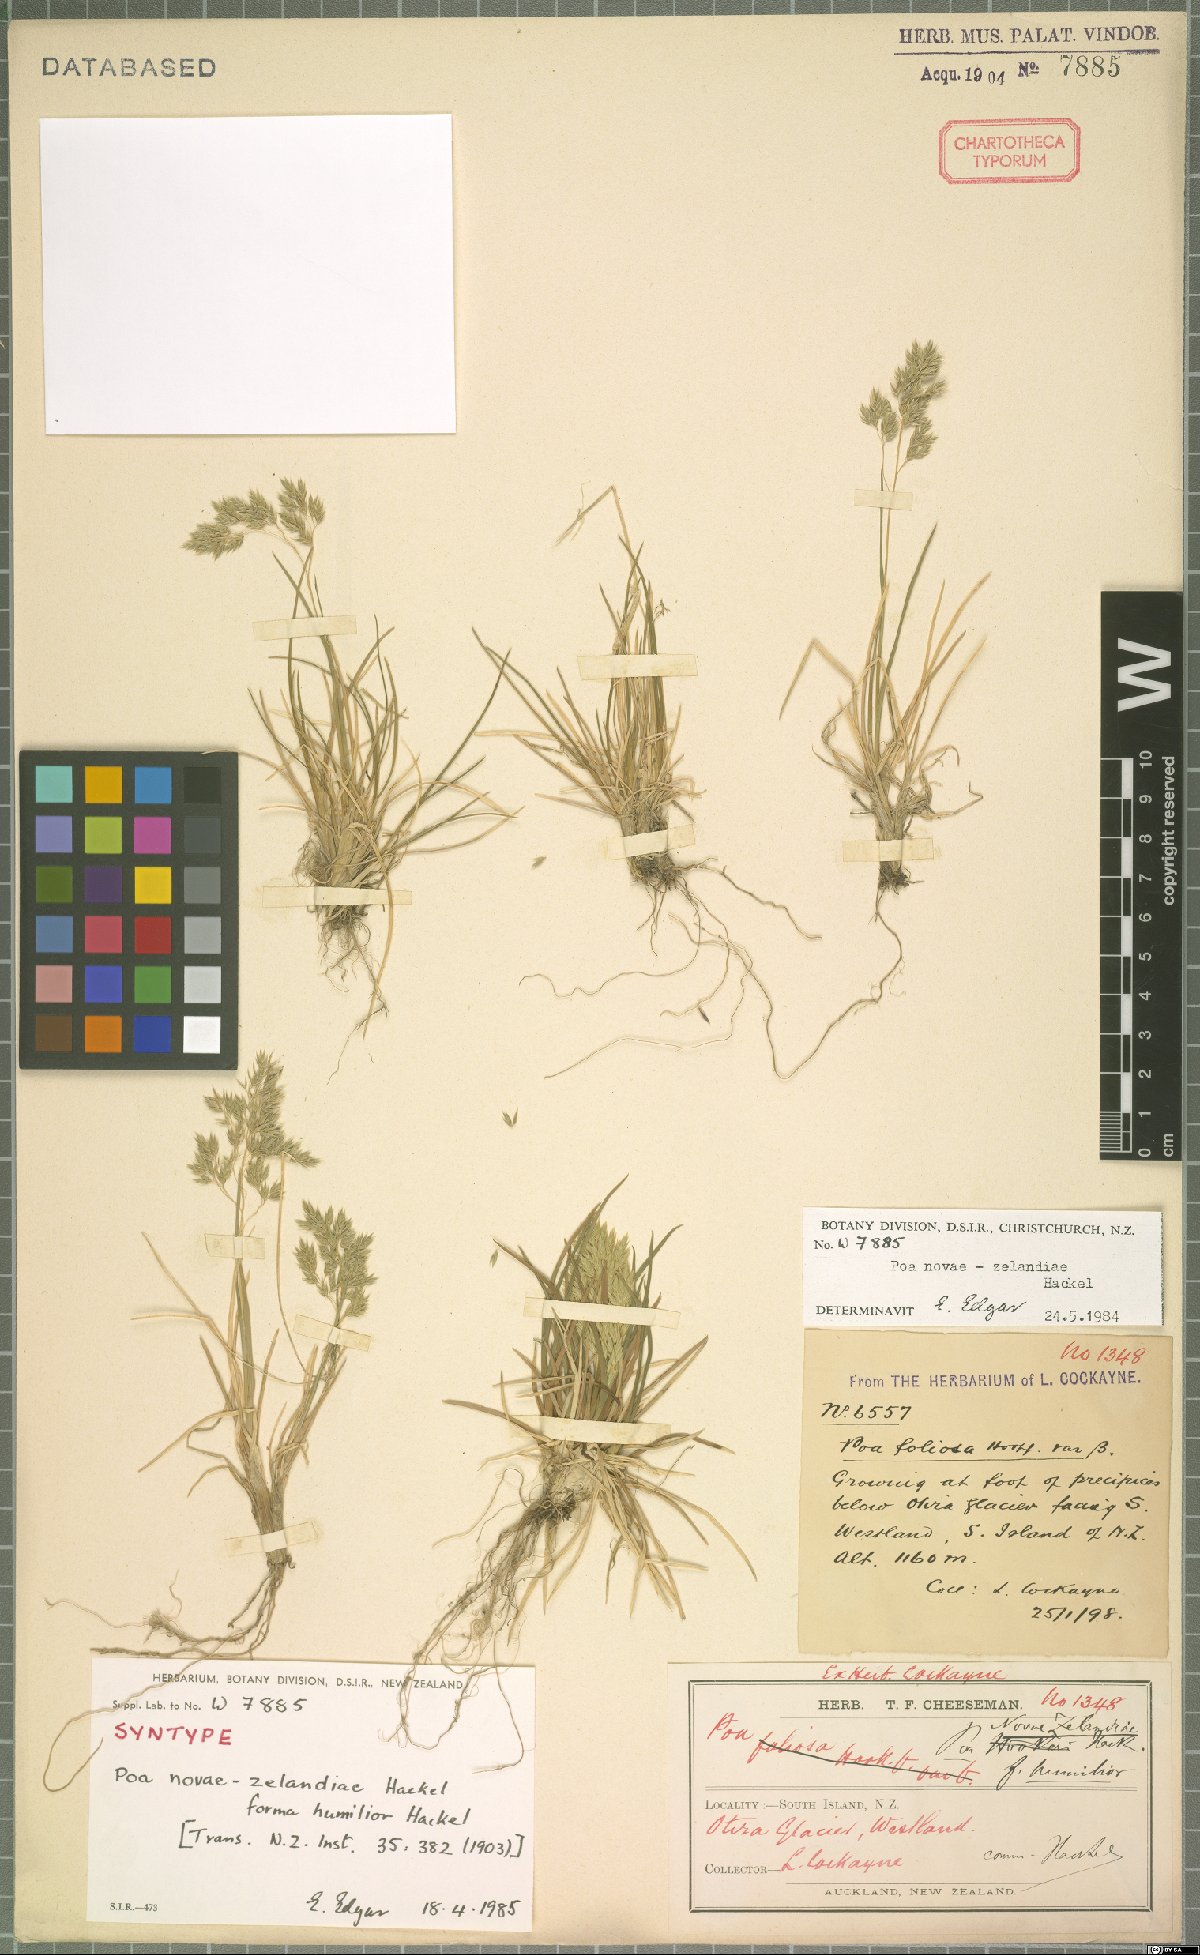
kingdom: Plantae
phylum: Tracheophyta
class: Liliopsida
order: Poales
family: Poaceae
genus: Poa
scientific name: Poa novae-zelandiae
